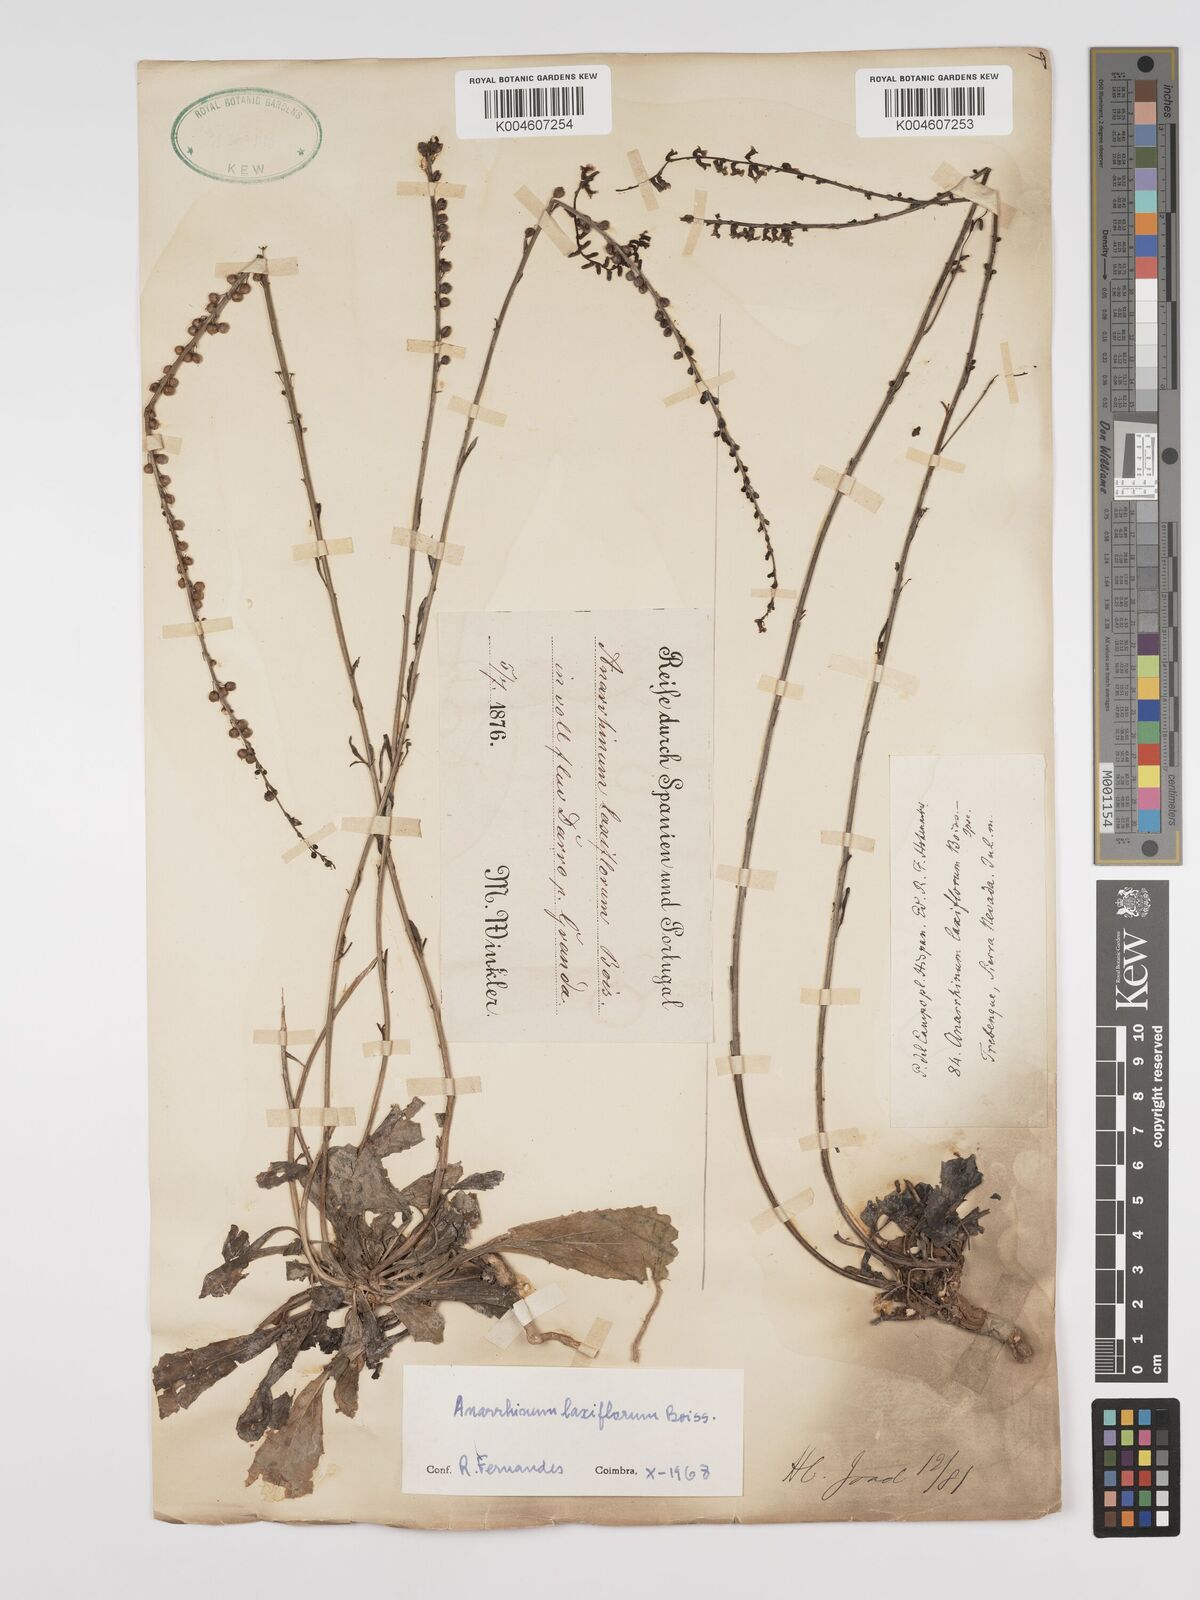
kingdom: Plantae
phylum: Tracheophyta
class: Magnoliopsida
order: Lamiales
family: Plantaginaceae
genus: Anarrhinum
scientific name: Anarrhinum laxiflorum
